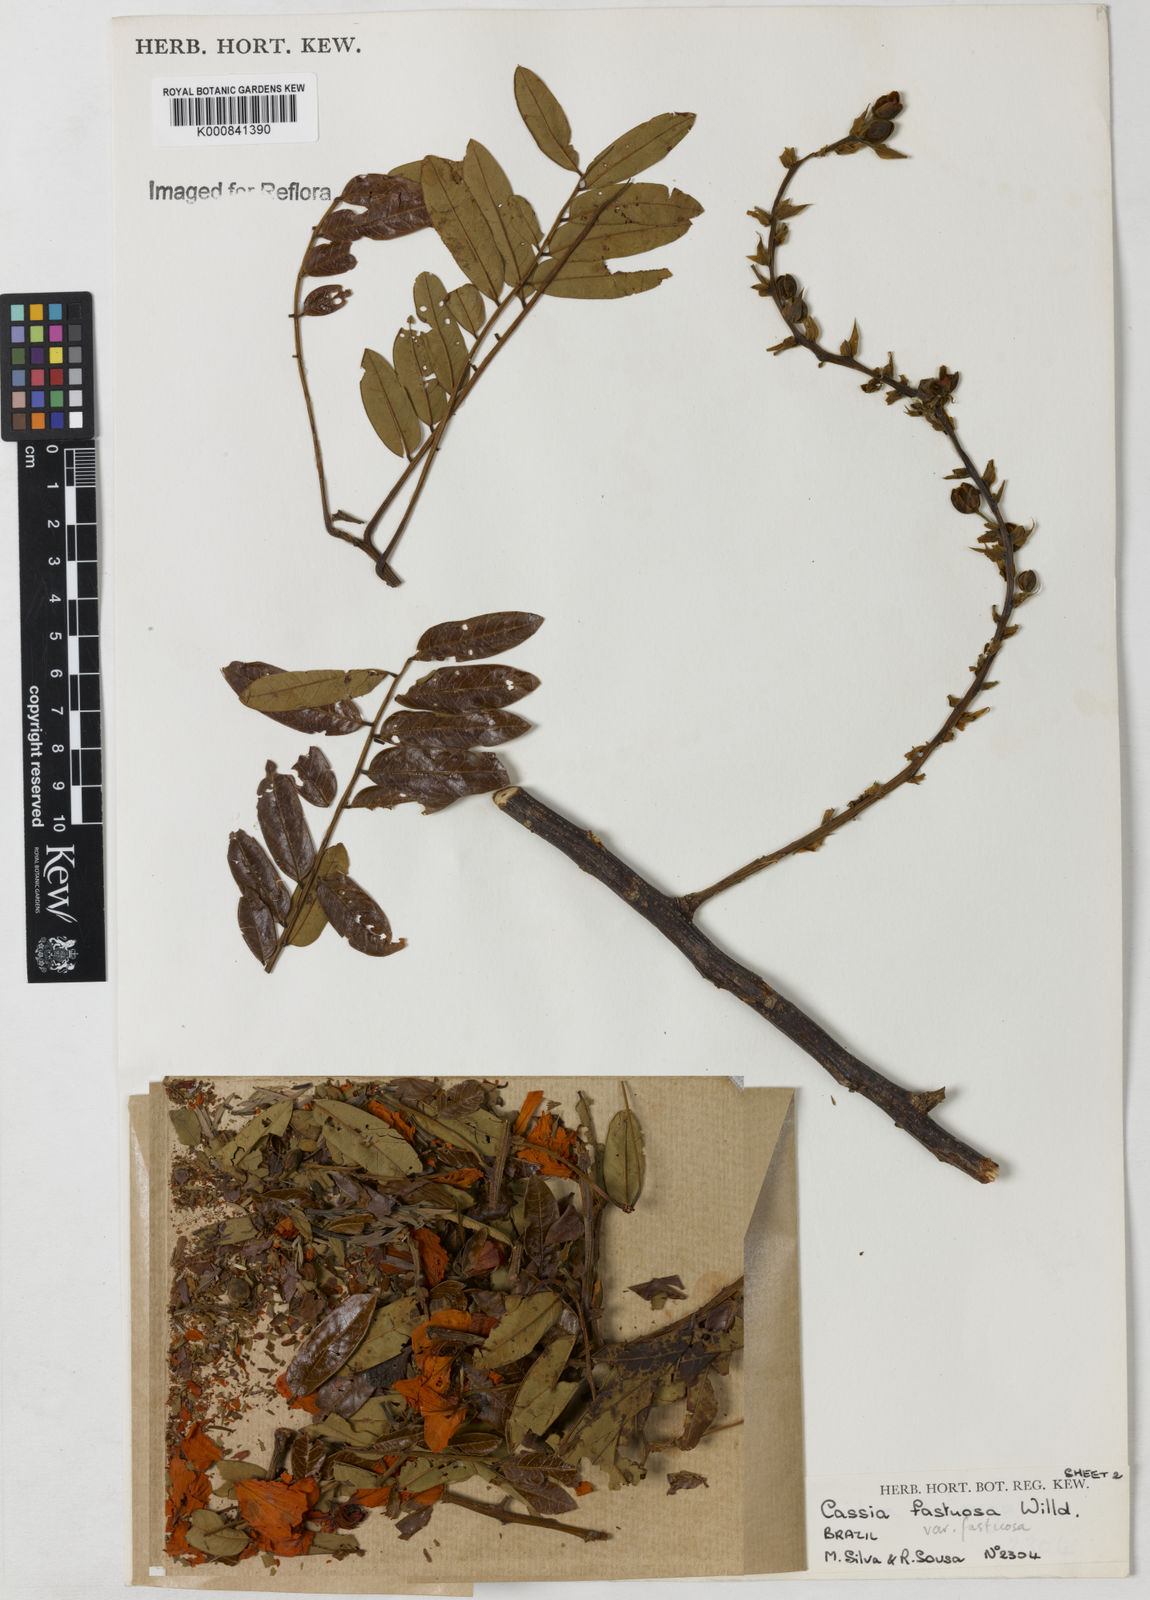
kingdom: Plantae
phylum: Tracheophyta
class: Magnoliopsida
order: Fabales
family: Fabaceae
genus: Cassia
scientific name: Cassia
